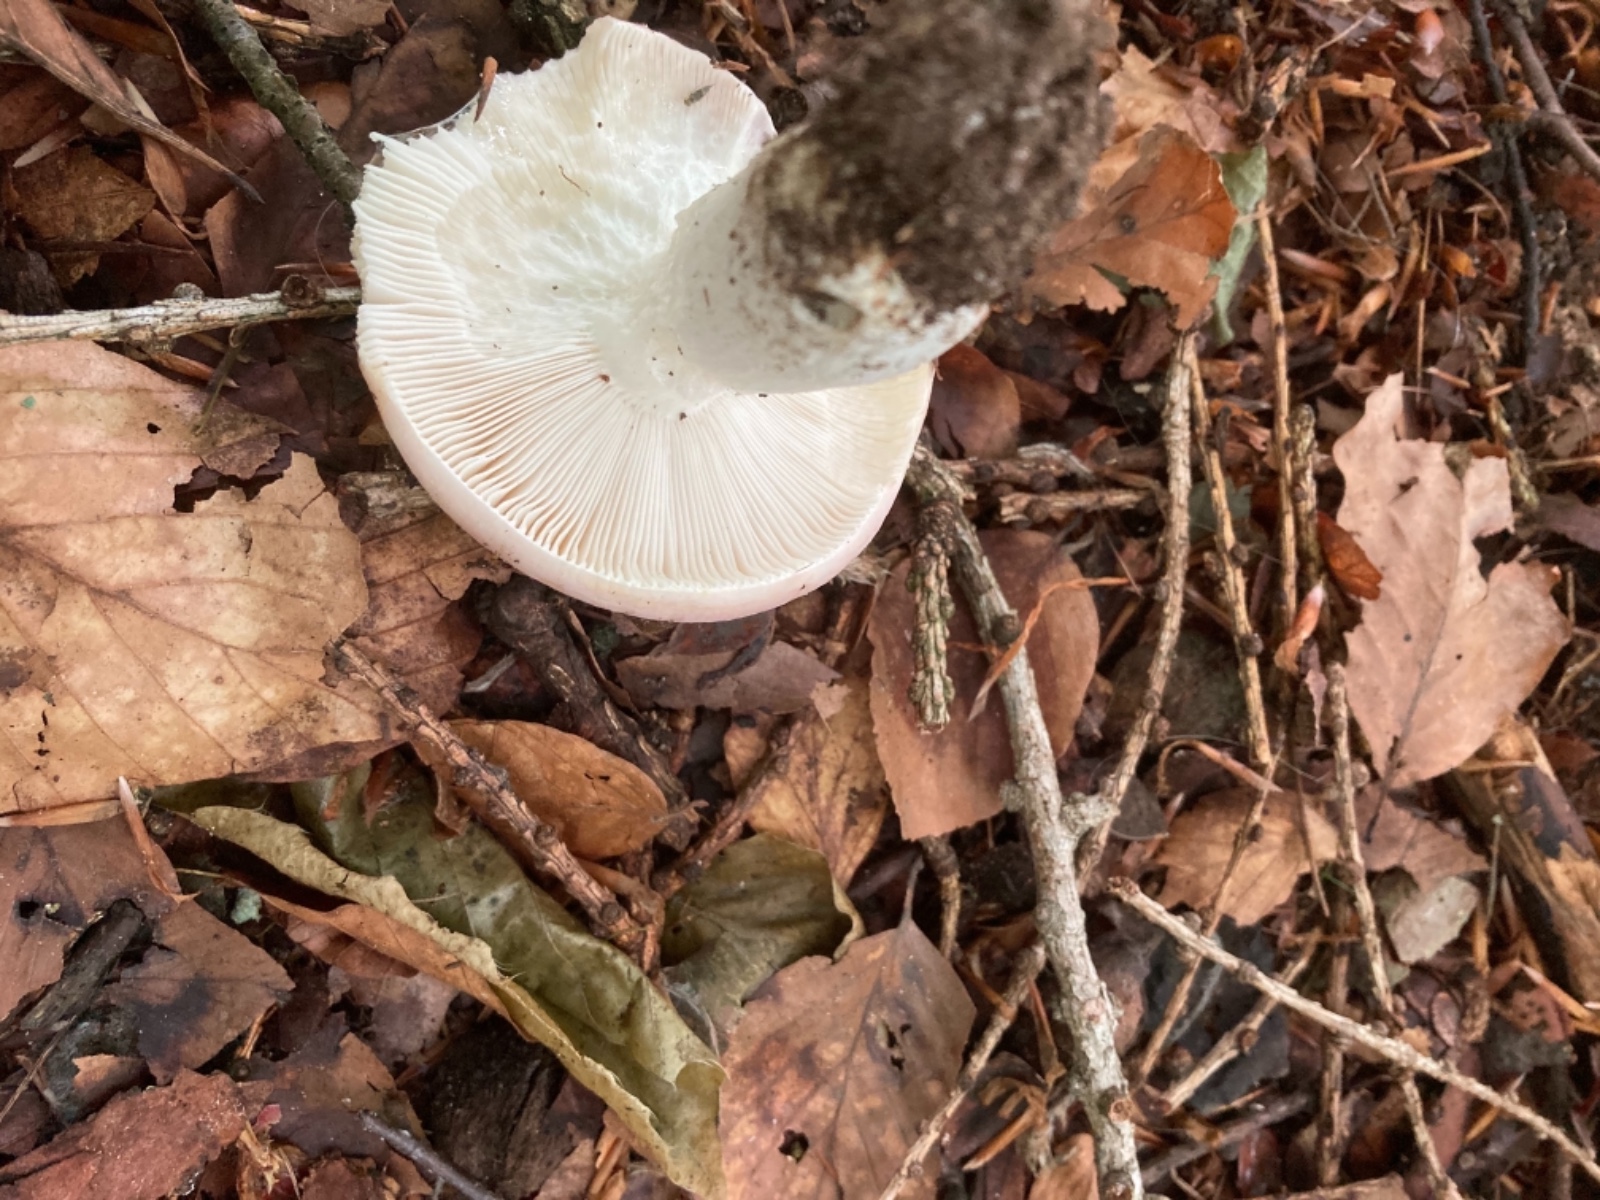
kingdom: Fungi
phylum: Basidiomycota
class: Agaricomycetes
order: Russulales
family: Russulaceae
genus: Russula
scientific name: Russula vesca
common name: spiselig skørhat
